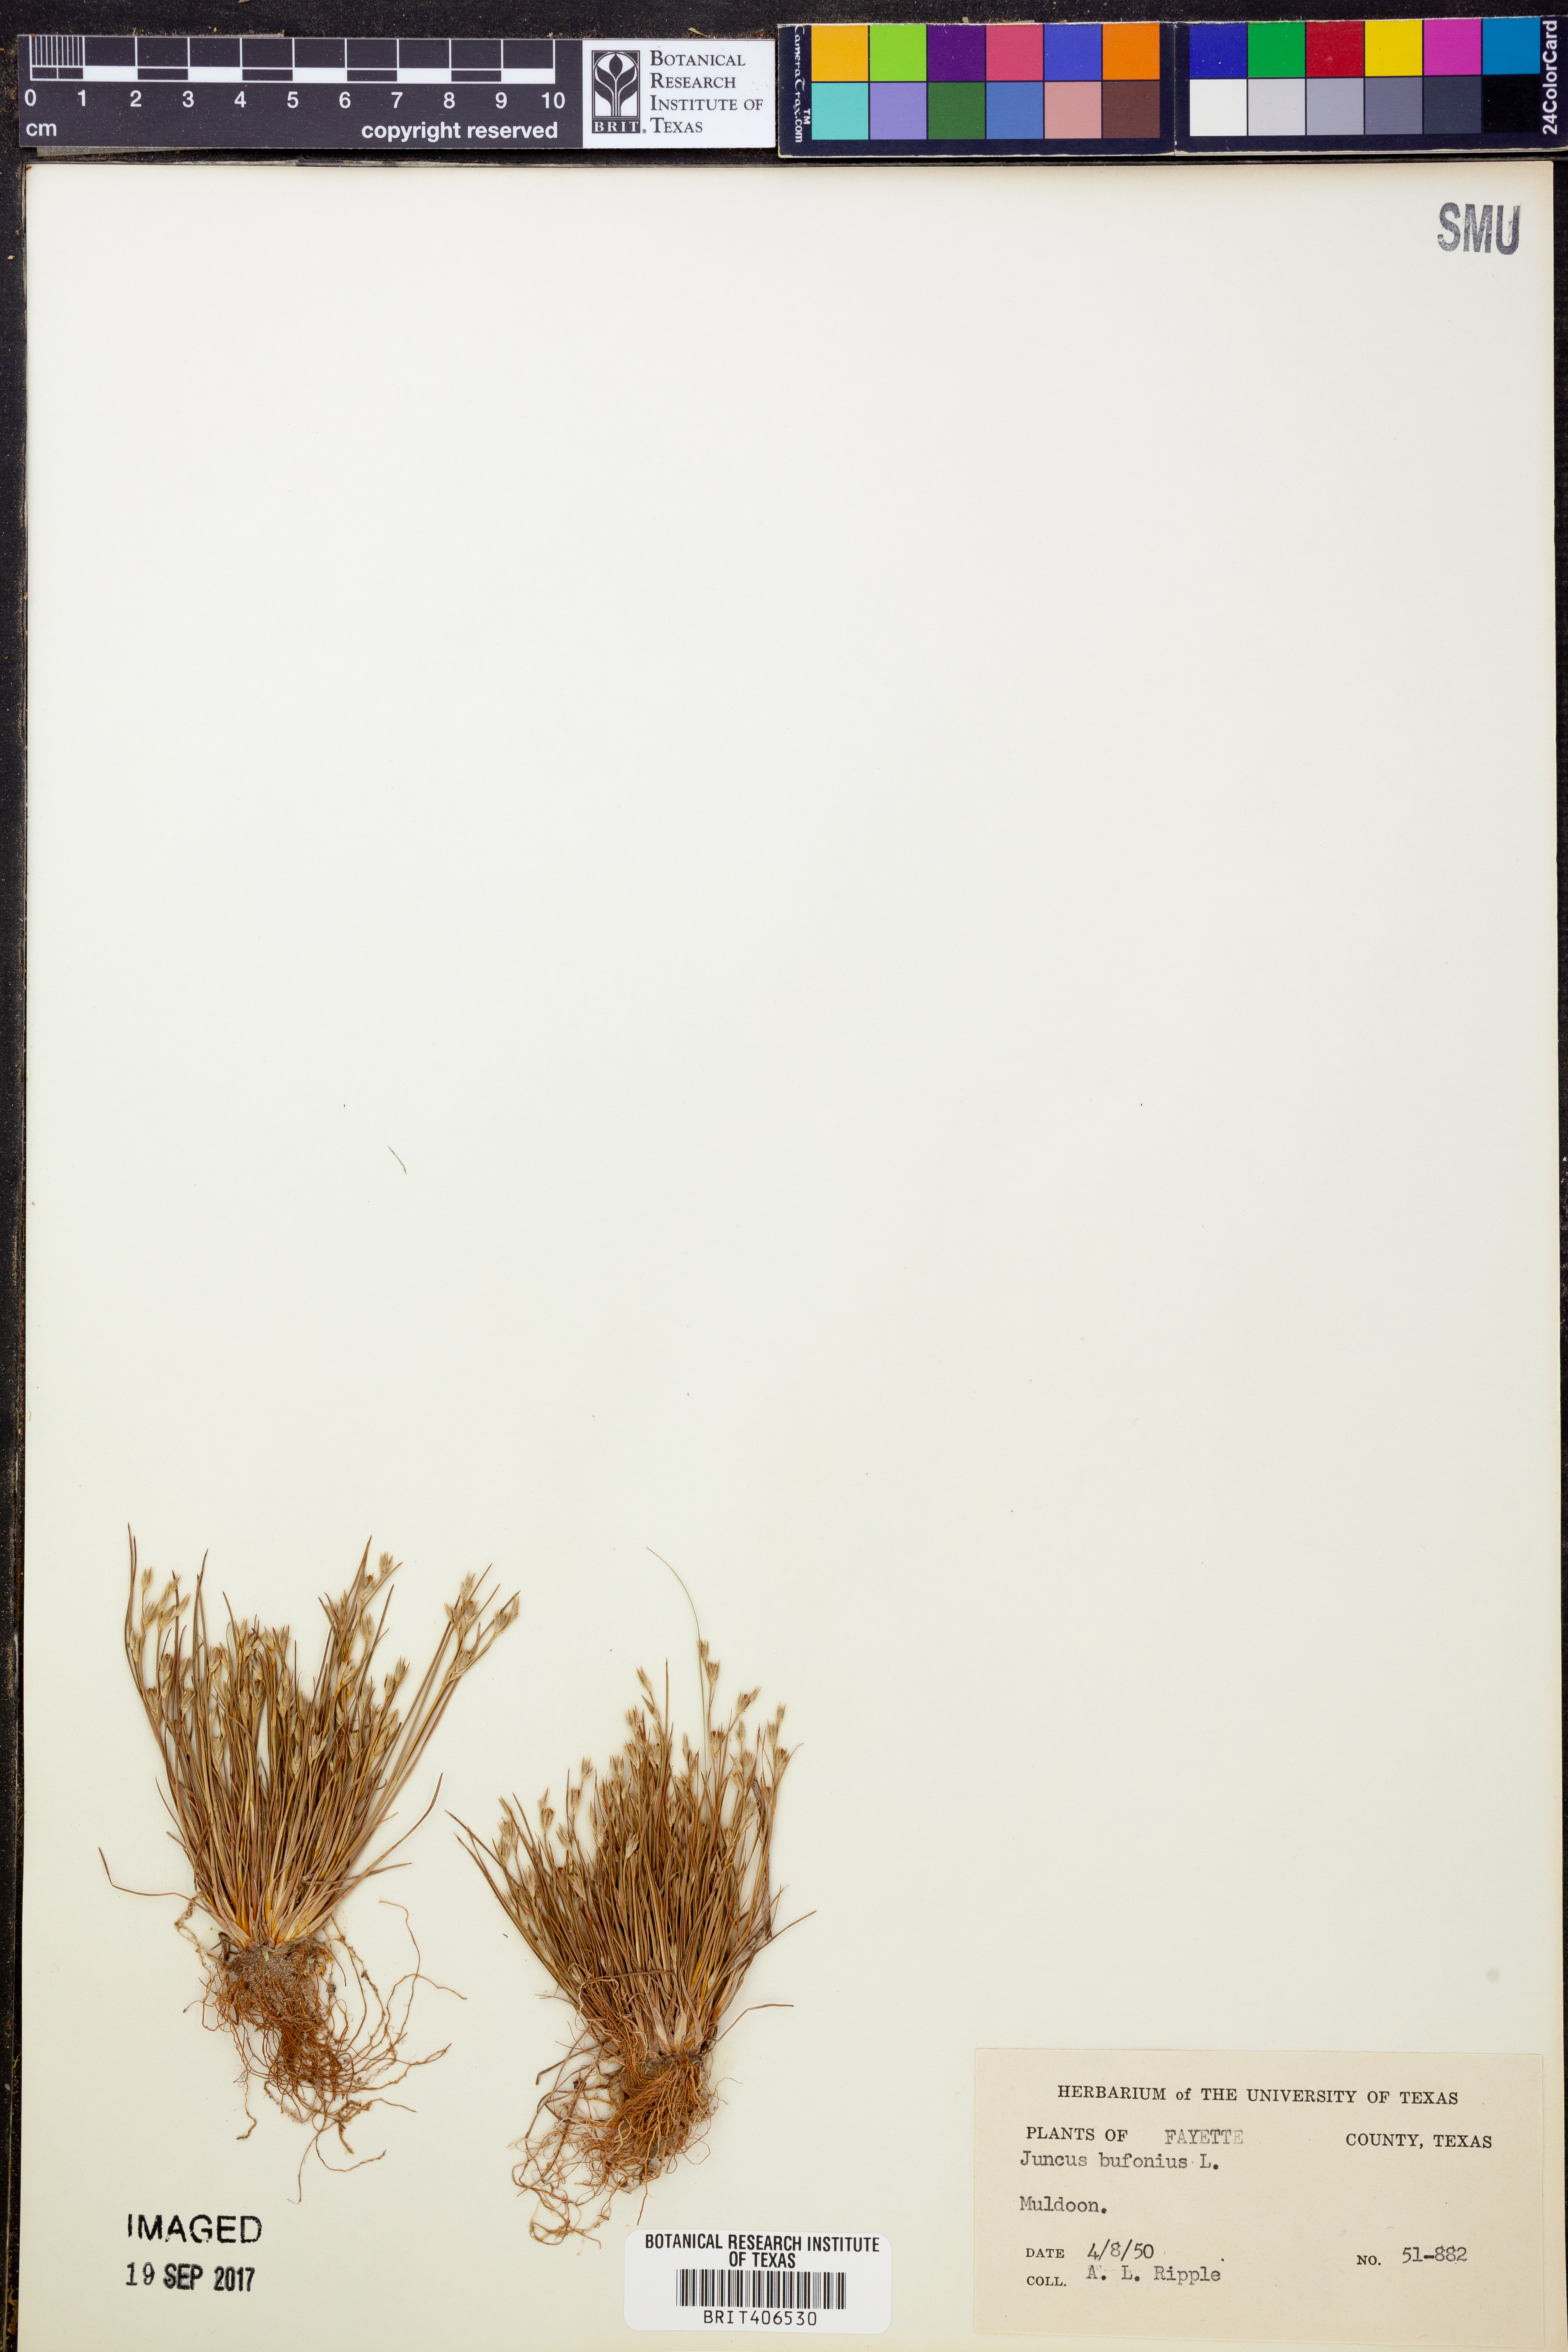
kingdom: Plantae
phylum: Tracheophyta
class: Liliopsida
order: Poales
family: Juncaceae
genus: Juncus
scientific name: Juncus bufonius
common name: Toad rush
